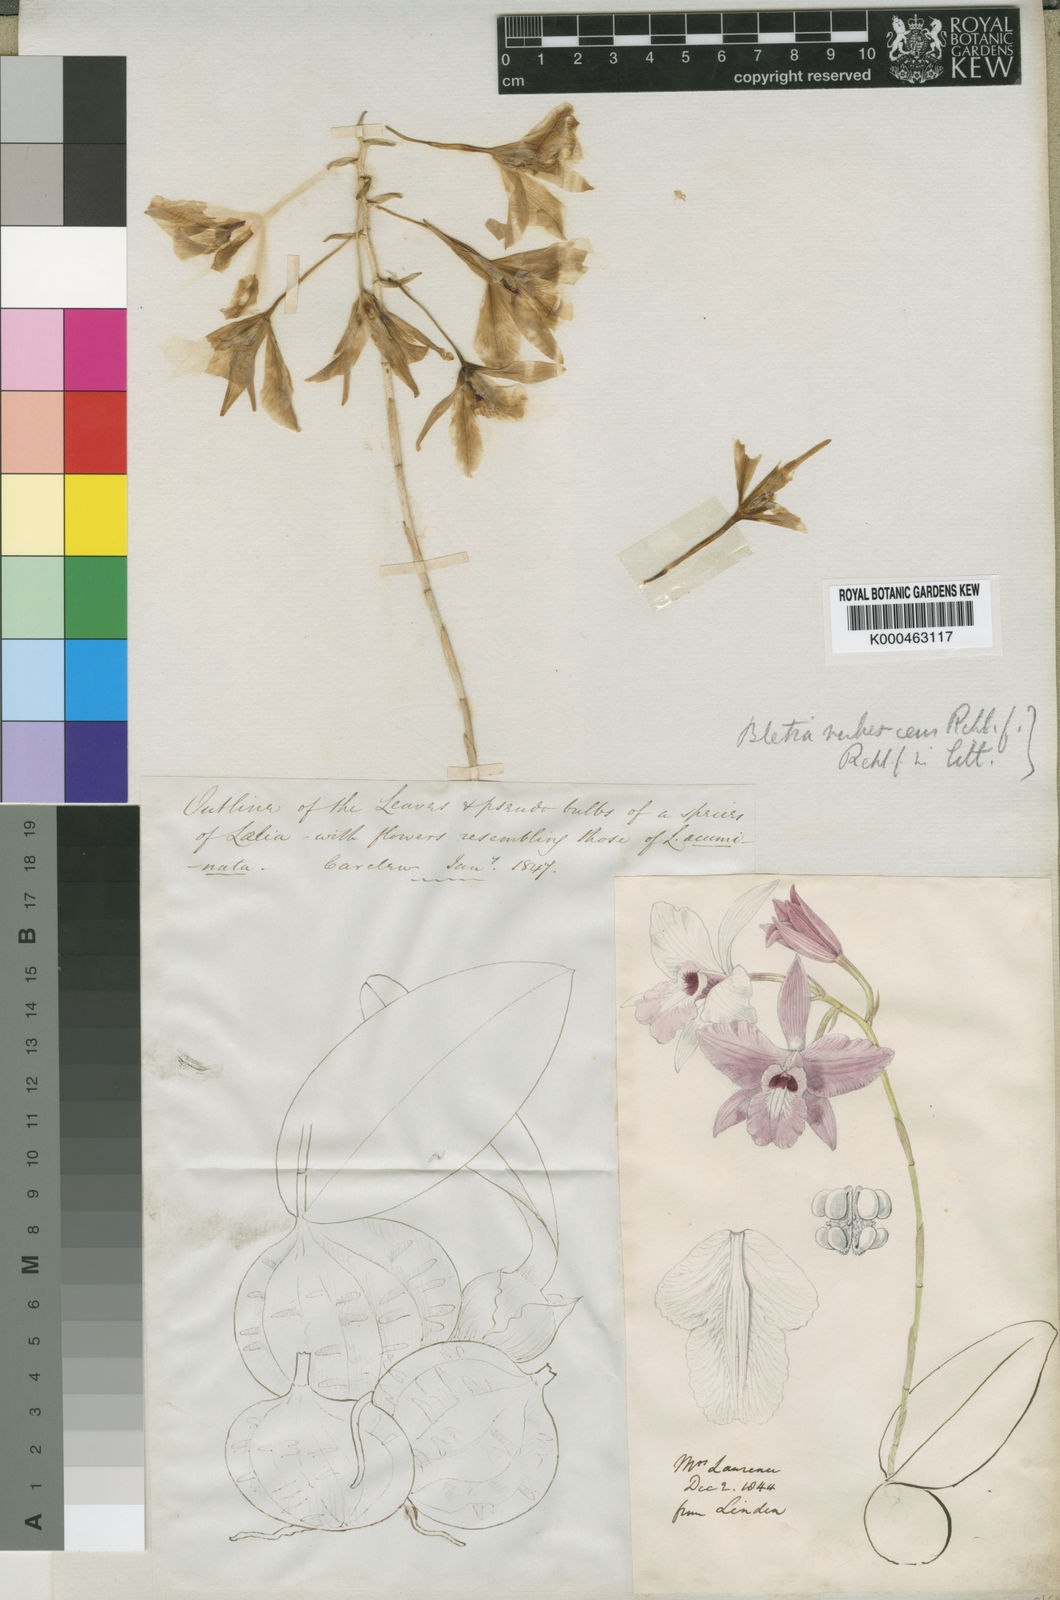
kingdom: Plantae
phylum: Tracheophyta
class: Liliopsida
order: Asparagales
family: Orchidaceae
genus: Laelia
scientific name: Laelia rubescens
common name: Pale laelia
